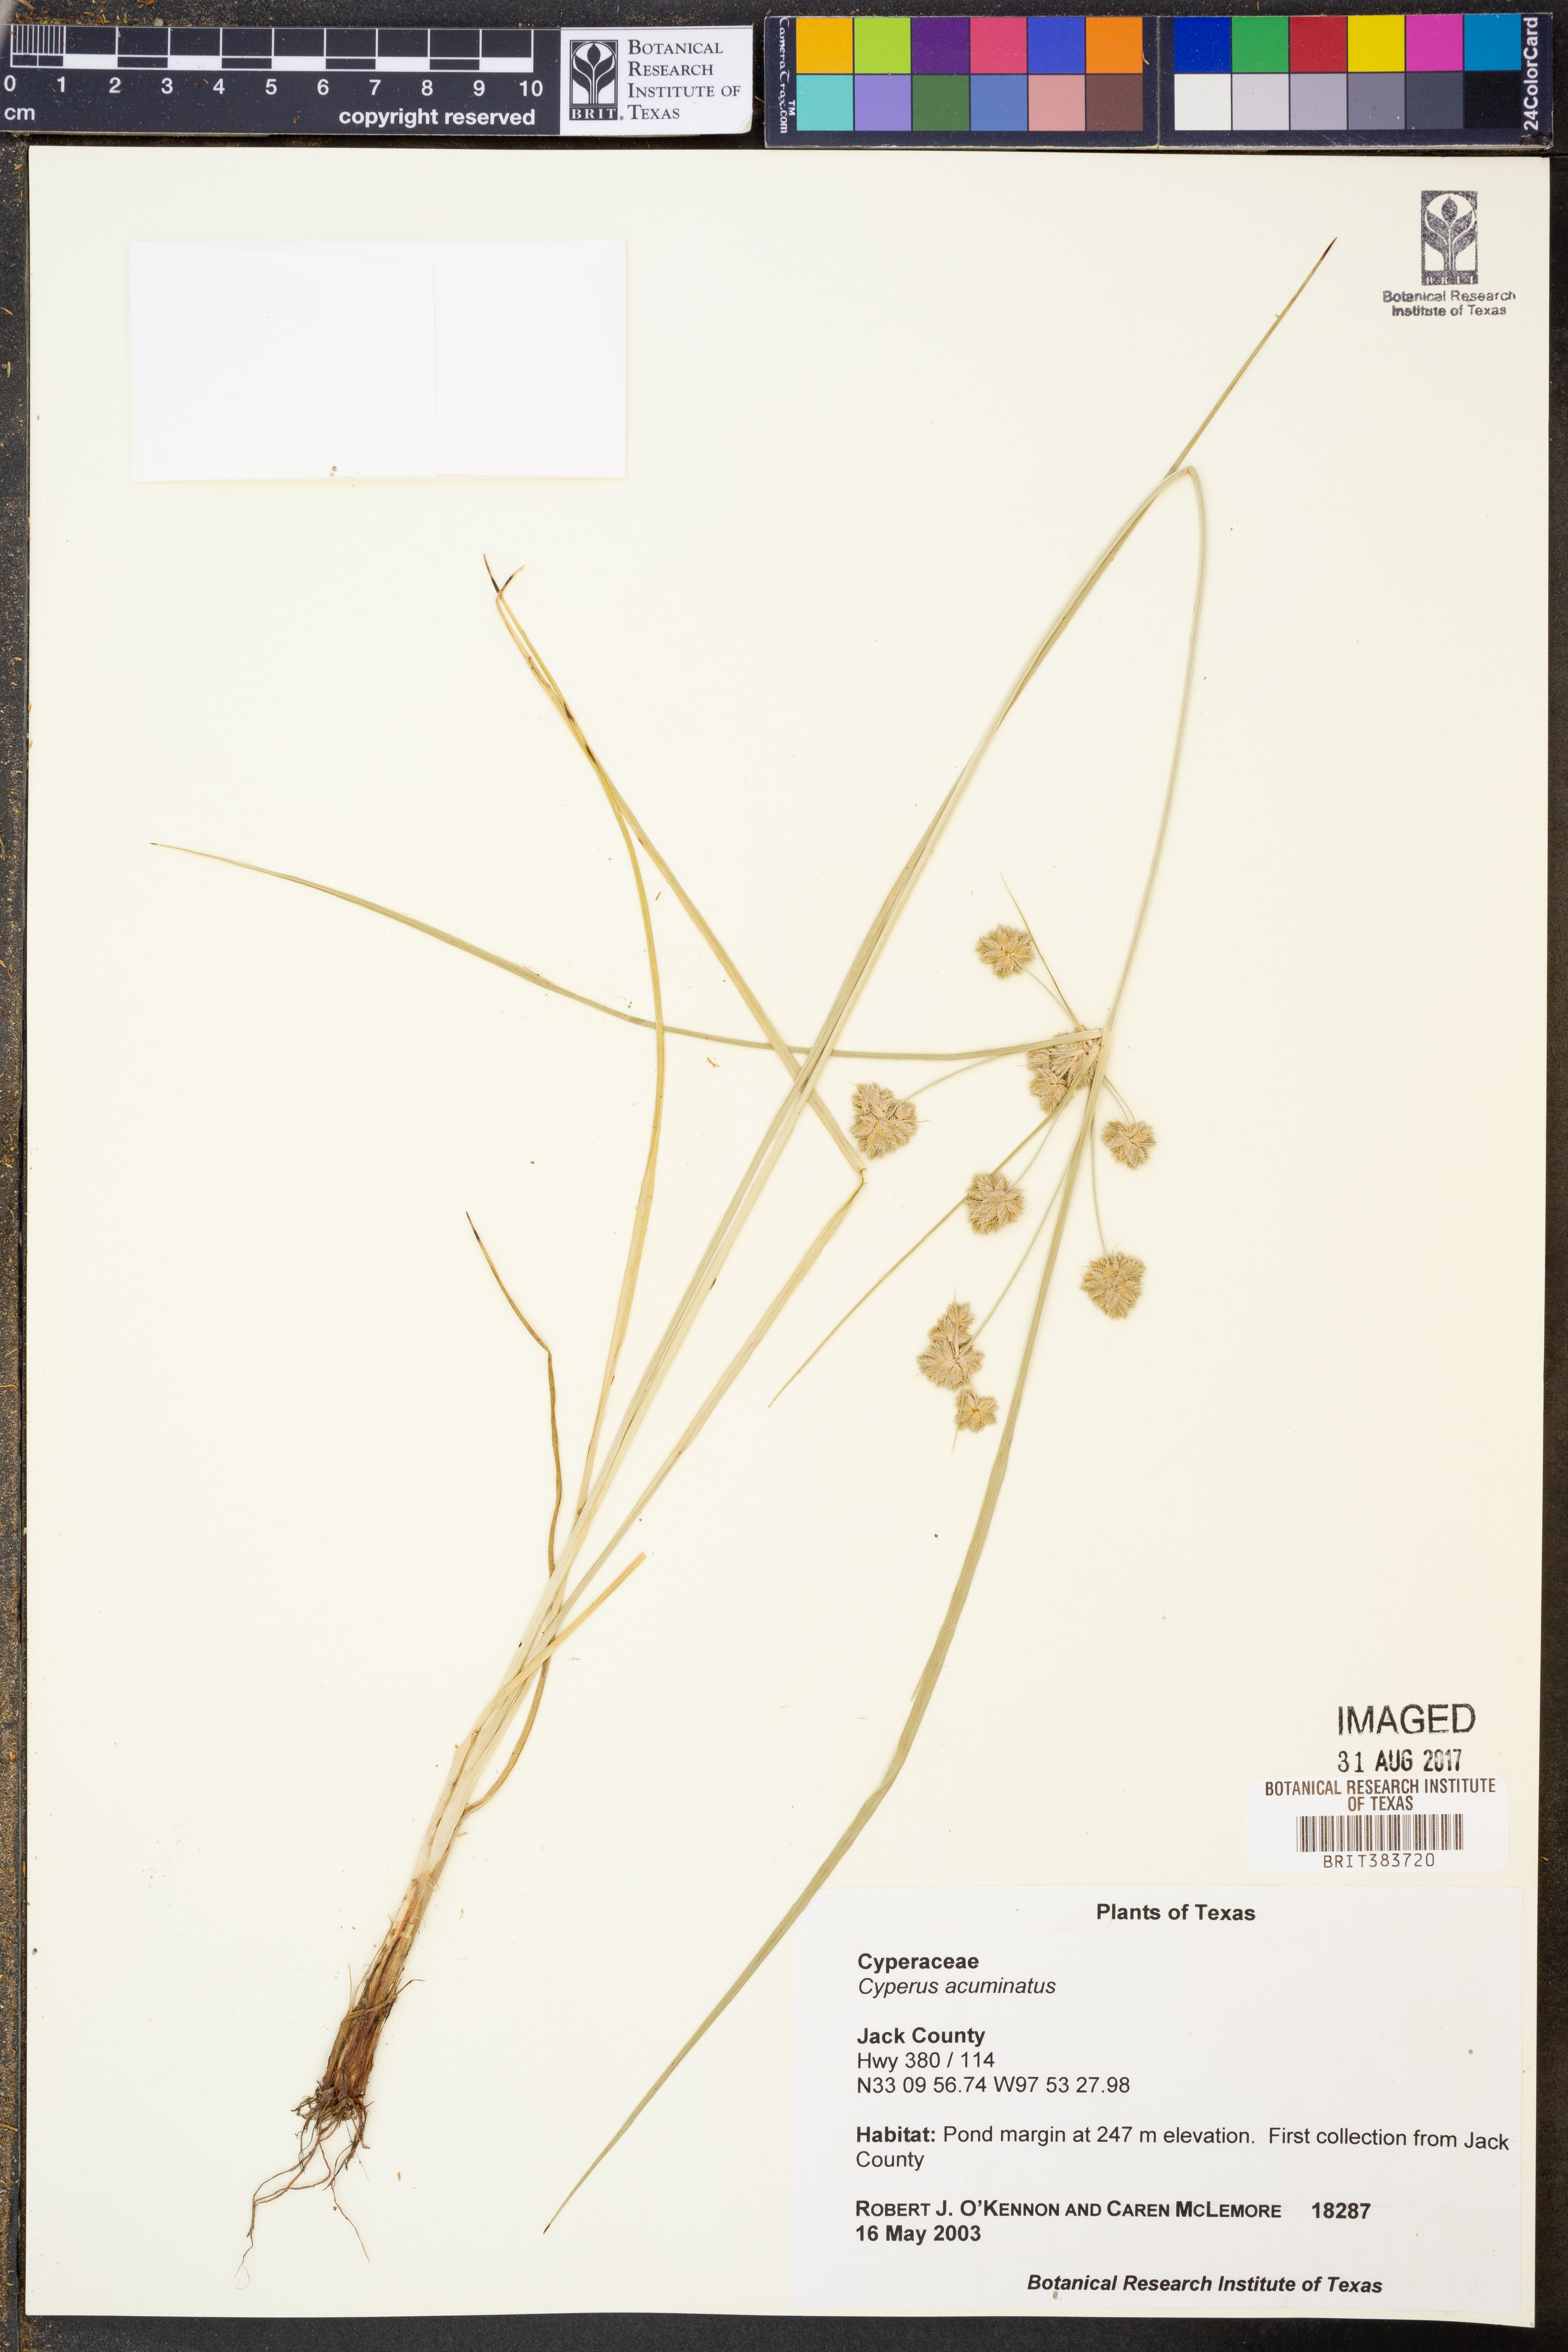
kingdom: Plantae
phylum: Tracheophyta
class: Liliopsida
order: Poales
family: Cyperaceae
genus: Cyperus
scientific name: Cyperus acuminatus
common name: Short-pointed cyperus
